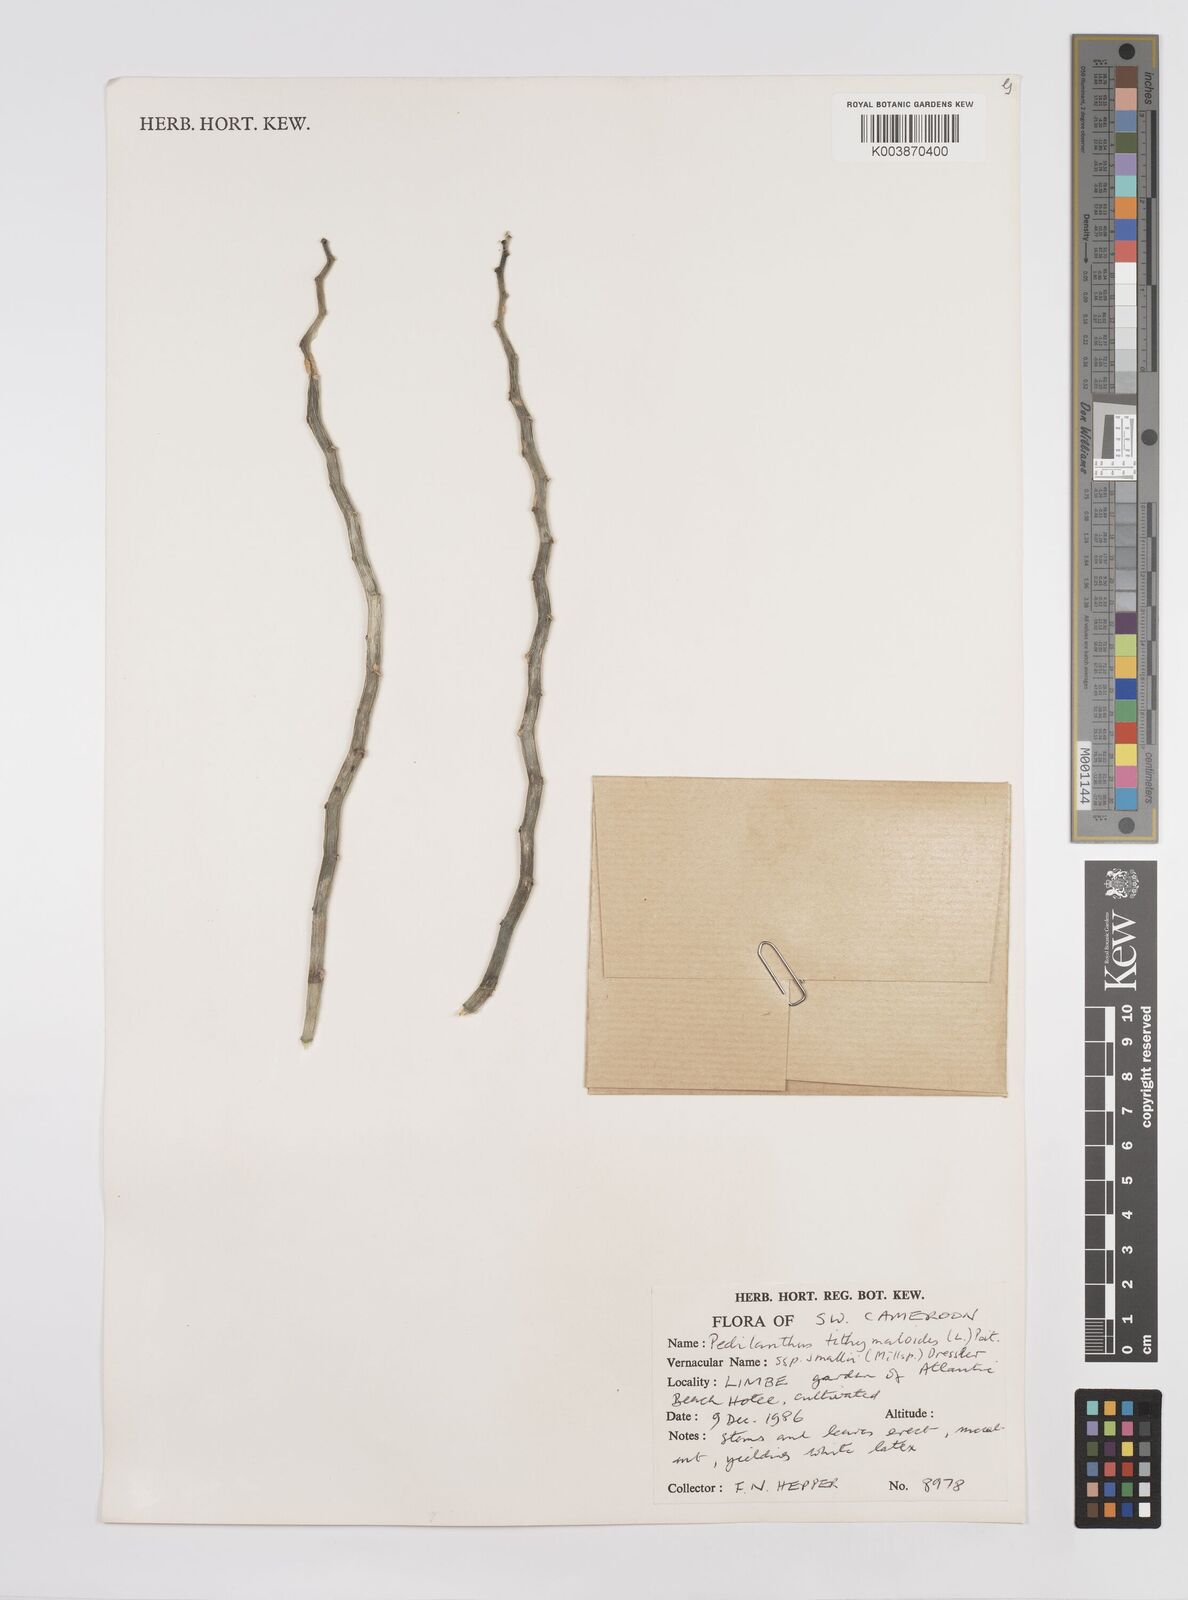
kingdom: Plantae
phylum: Tracheophyta
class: Magnoliopsida
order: Malpighiales
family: Euphorbiaceae
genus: Euphorbia
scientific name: Euphorbia tithymaloides
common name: Slipperplant
